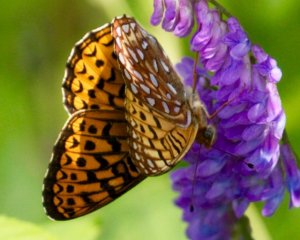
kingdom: Animalia
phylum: Arthropoda
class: Insecta
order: Lepidoptera
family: Nymphalidae
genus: Speyeria
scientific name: Speyeria atlantis
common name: Atlantis Fritillary
